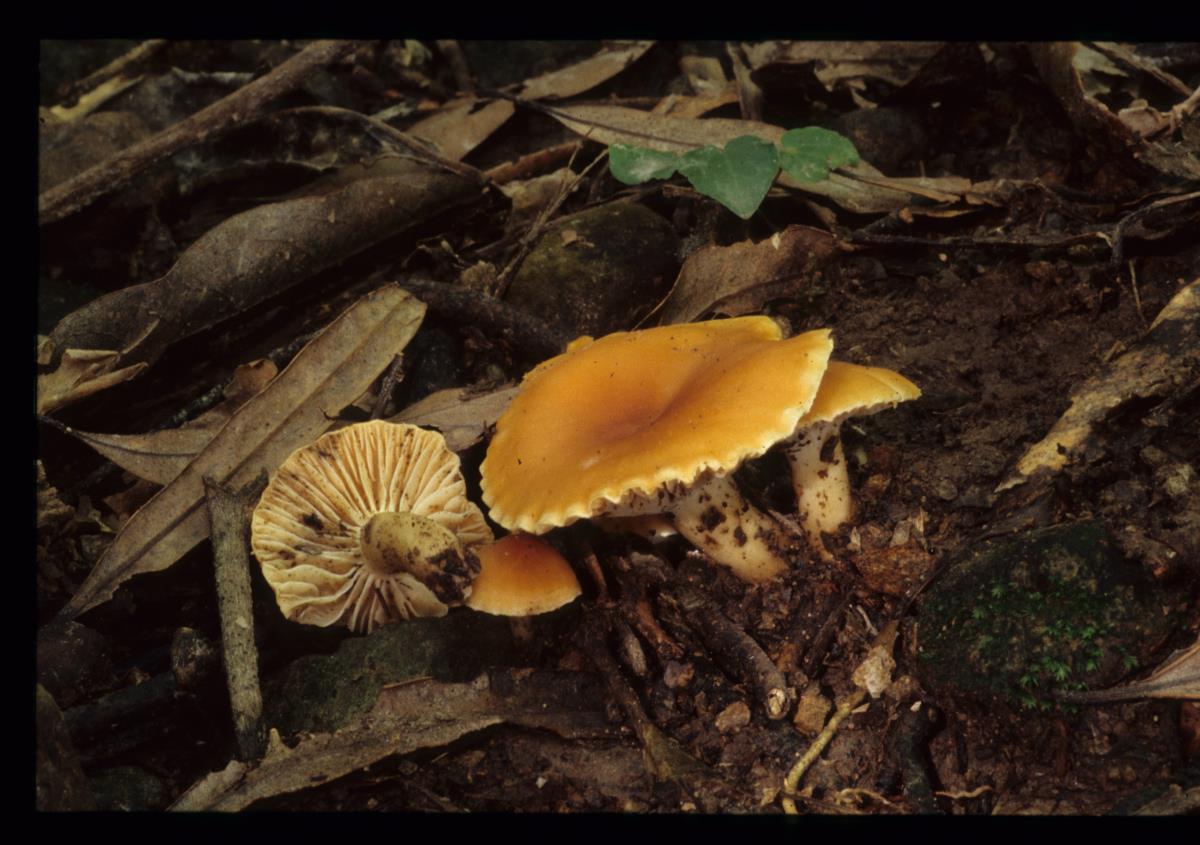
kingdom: Fungi
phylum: Basidiomycota
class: Agaricomycetes
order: Agaricales
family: Hygrophoraceae
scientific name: Hygrophoraceae
